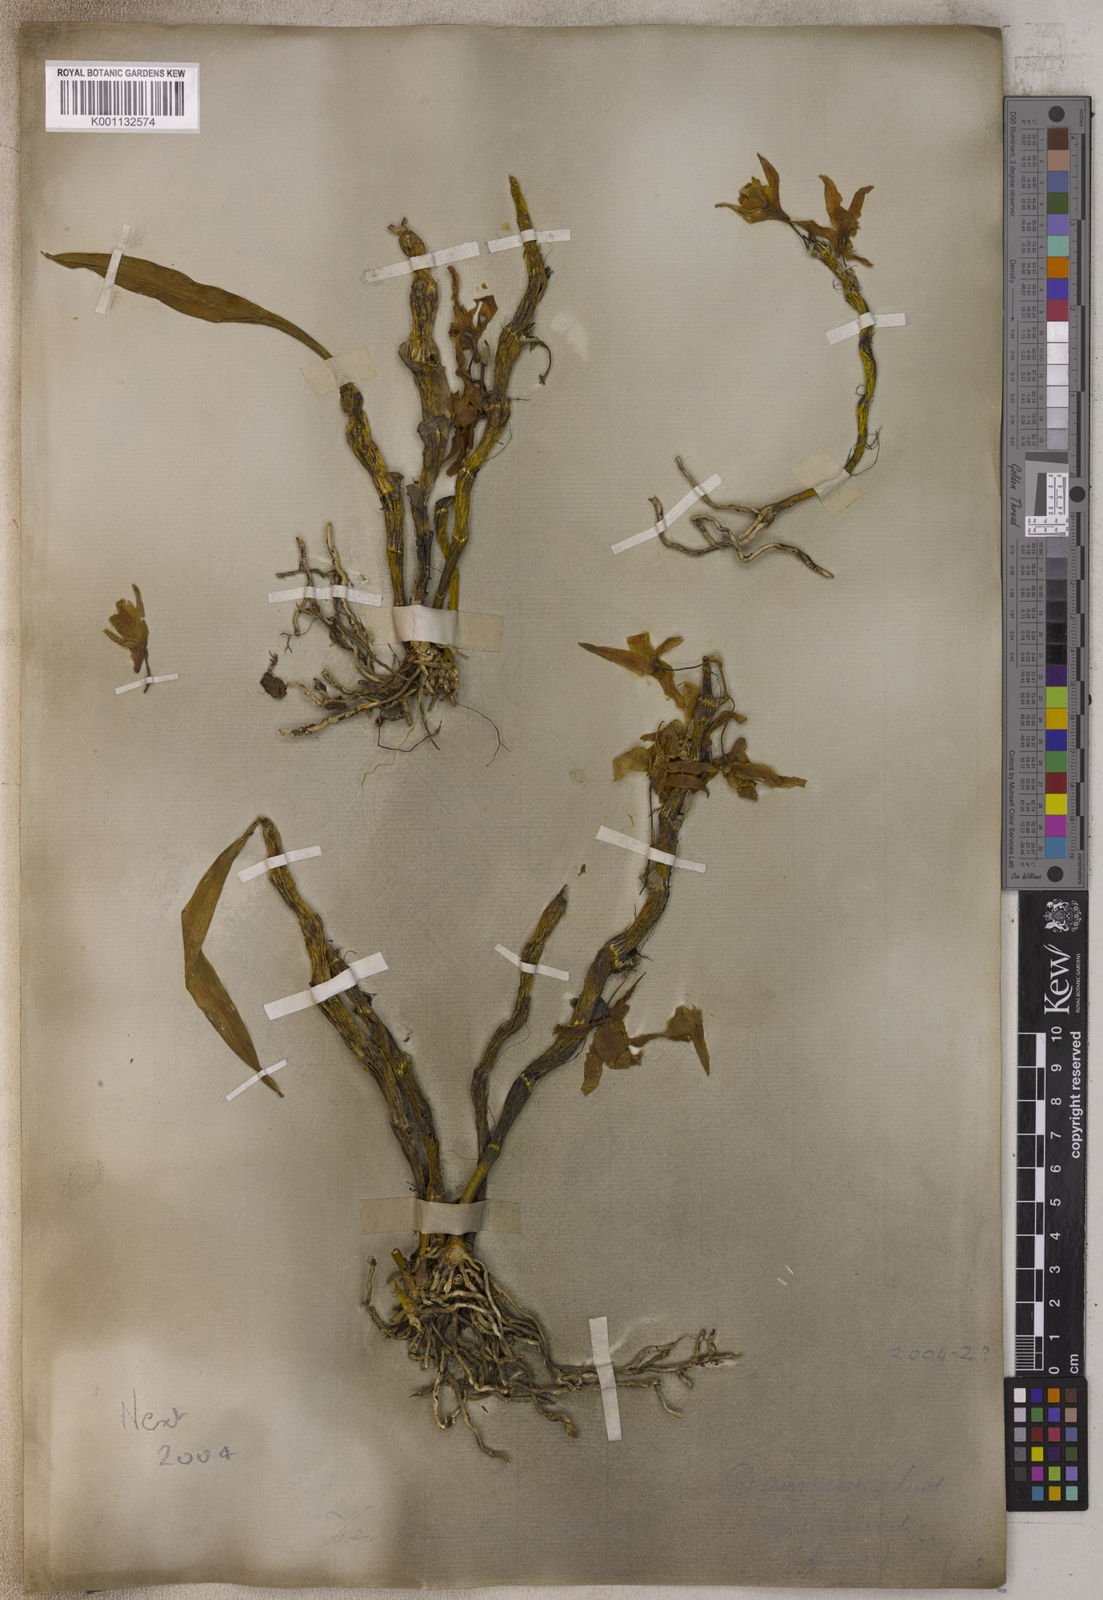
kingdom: Plantae
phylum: Tracheophyta
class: Liliopsida
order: Asparagales
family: Orchidaceae
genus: Dendrobium
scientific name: Dendrobium heterocarpum
